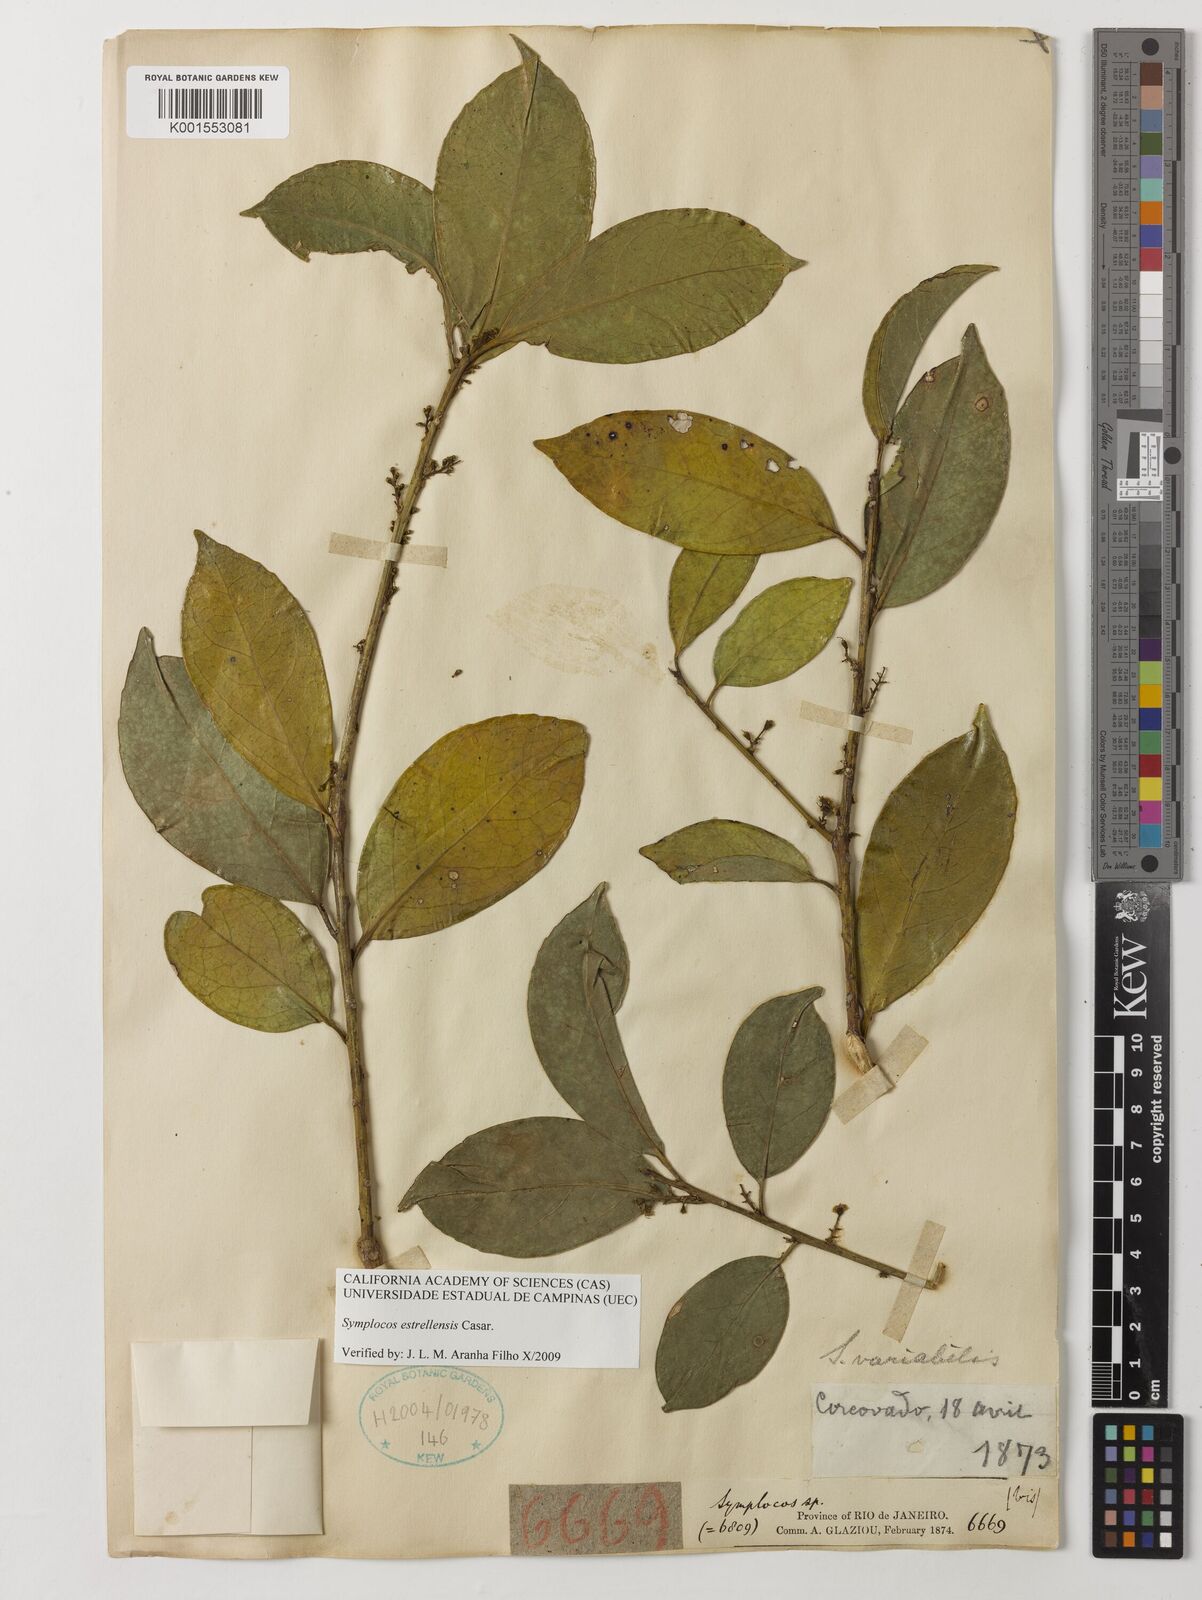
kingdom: Plantae
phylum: Tracheophyta
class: Magnoliopsida
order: Ericales
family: Symplocaceae
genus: Symplocos
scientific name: Symplocos estrellensis
